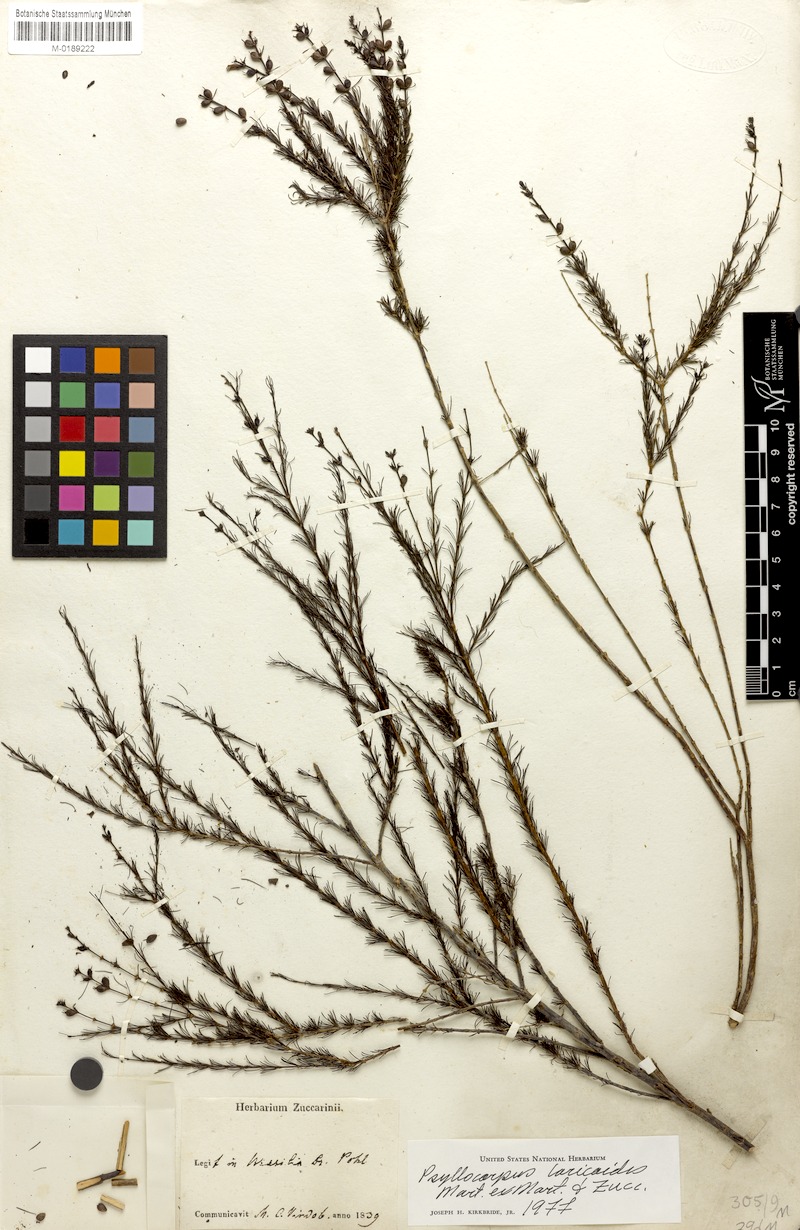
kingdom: Plantae
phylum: Tracheophyta
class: Magnoliopsida
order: Gentianales
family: Rubiaceae
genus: Psyllocarpus
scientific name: Psyllocarpus laricoides
